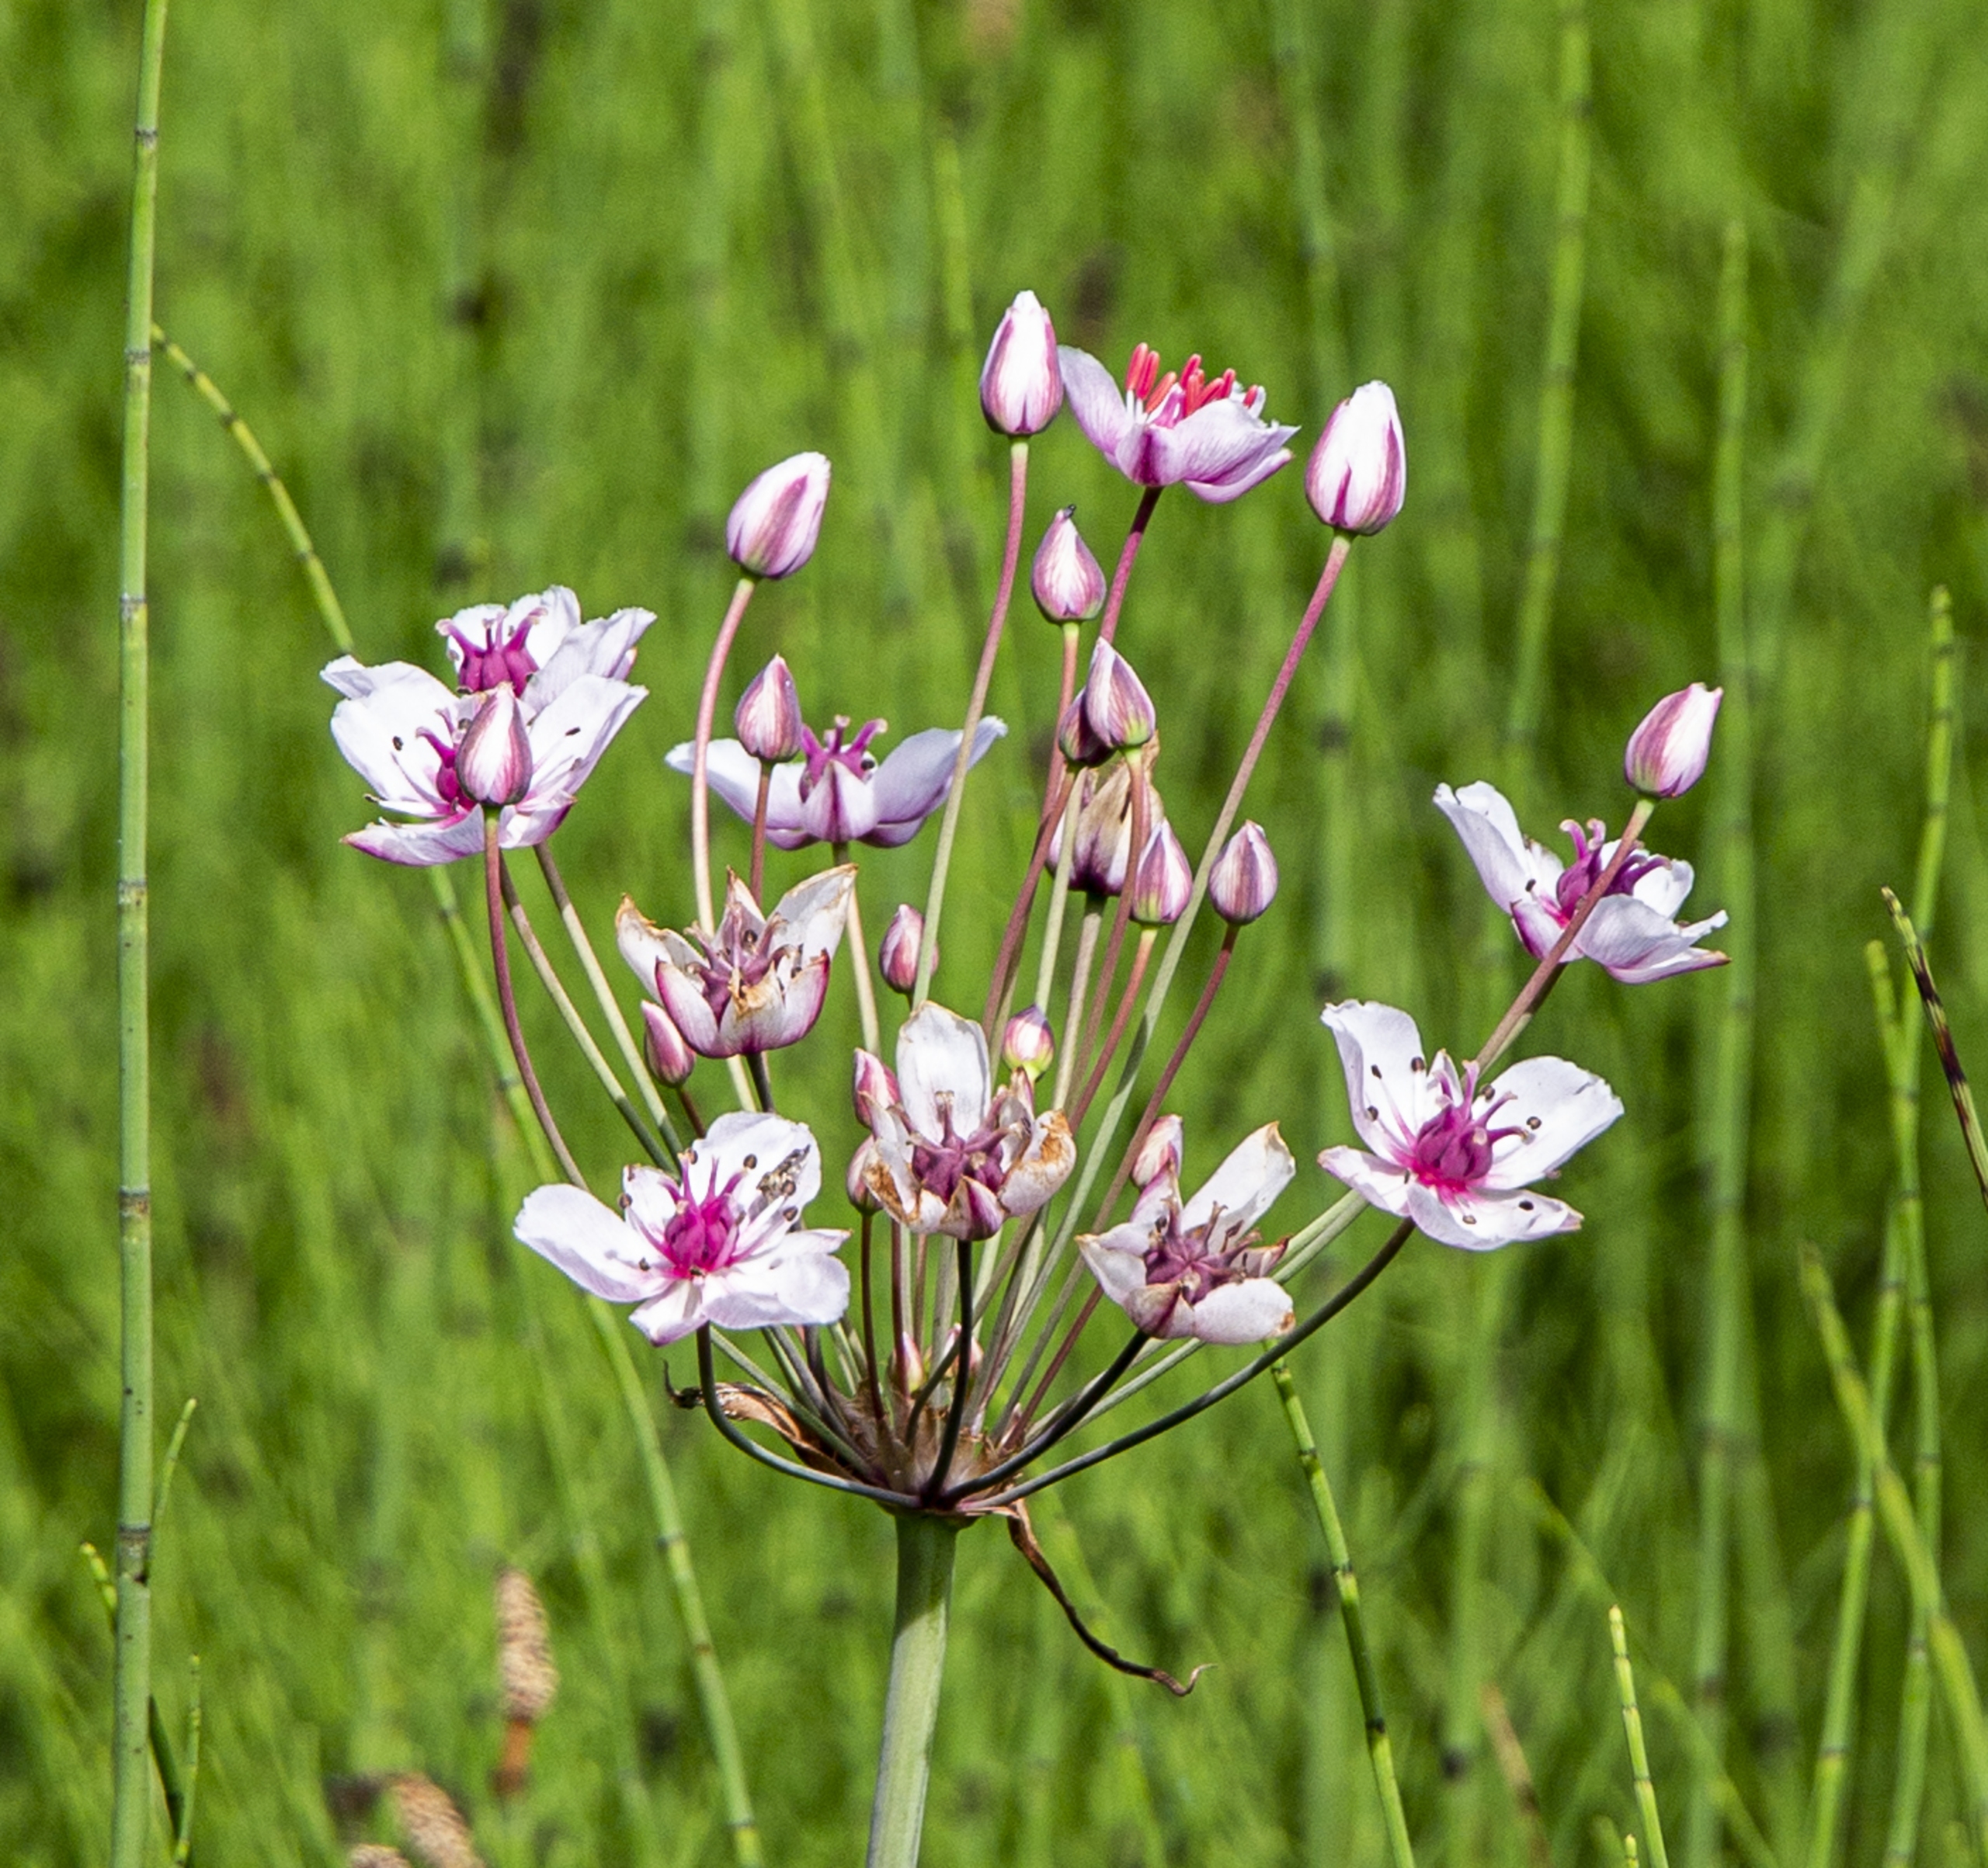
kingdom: Plantae
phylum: Tracheophyta
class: Liliopsida
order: Alismatales
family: Butomaceae
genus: Butomus
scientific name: Butomus umbellatus
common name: Brudelys
